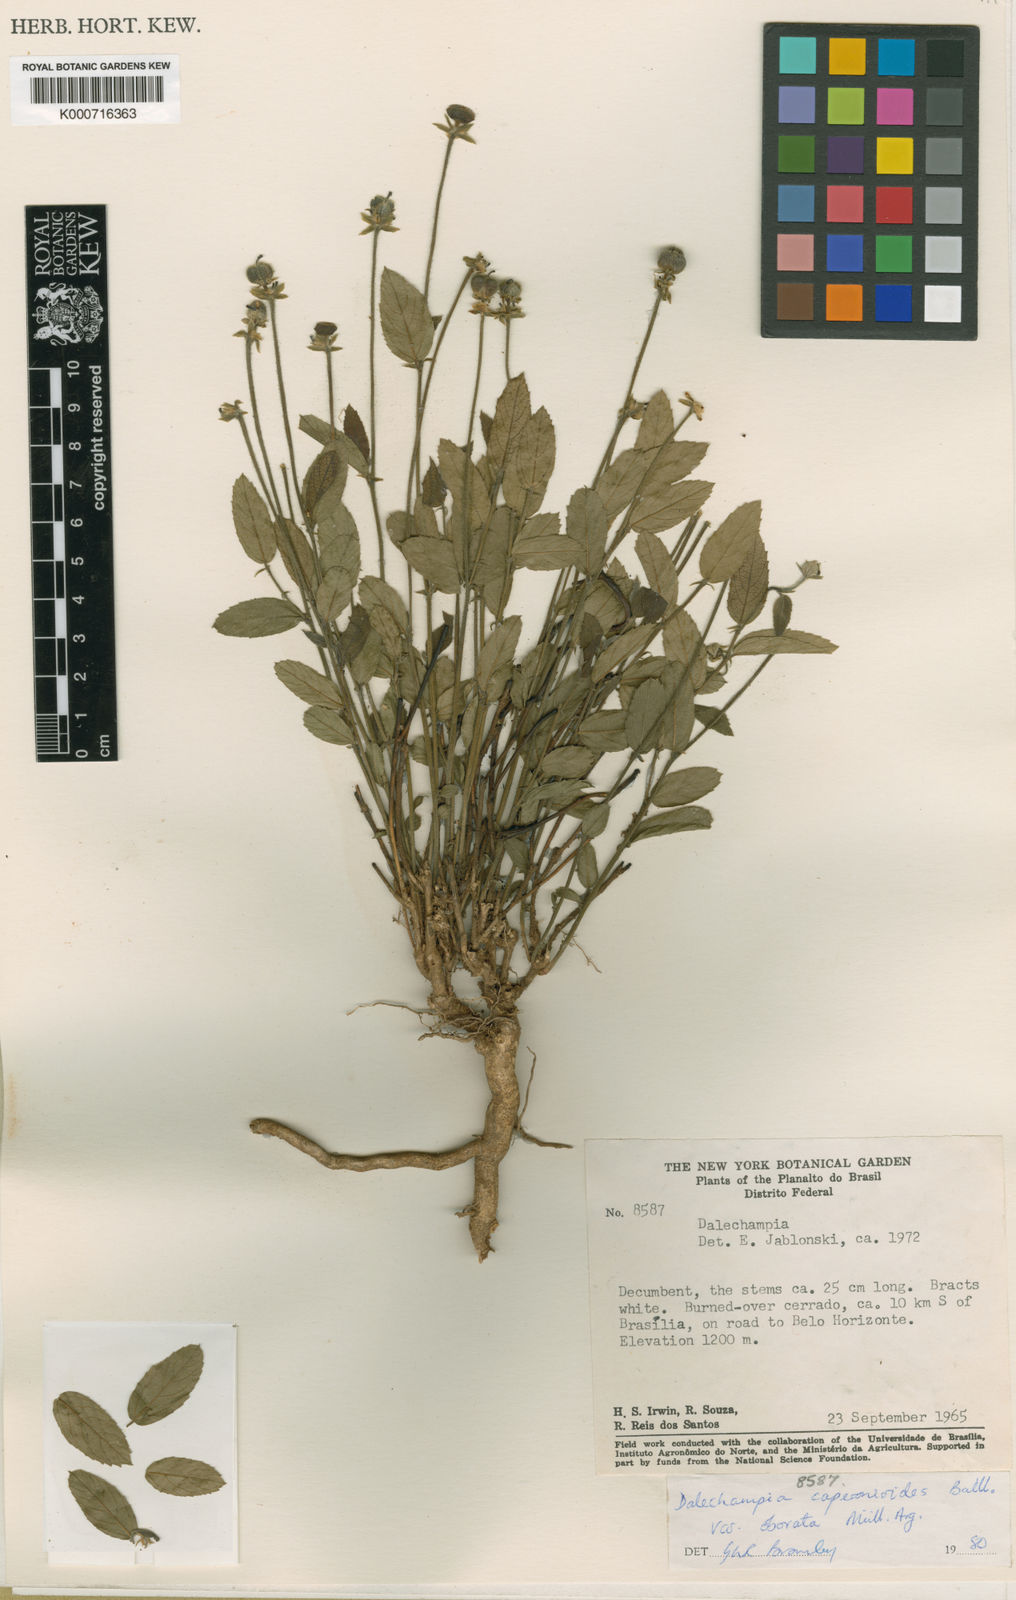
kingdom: Plantae
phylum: Tracheophyta
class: Magnoliopsida
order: Malpighiales
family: Euphorbiaceae
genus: Dalechampia
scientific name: Dalechampia caperonioides
